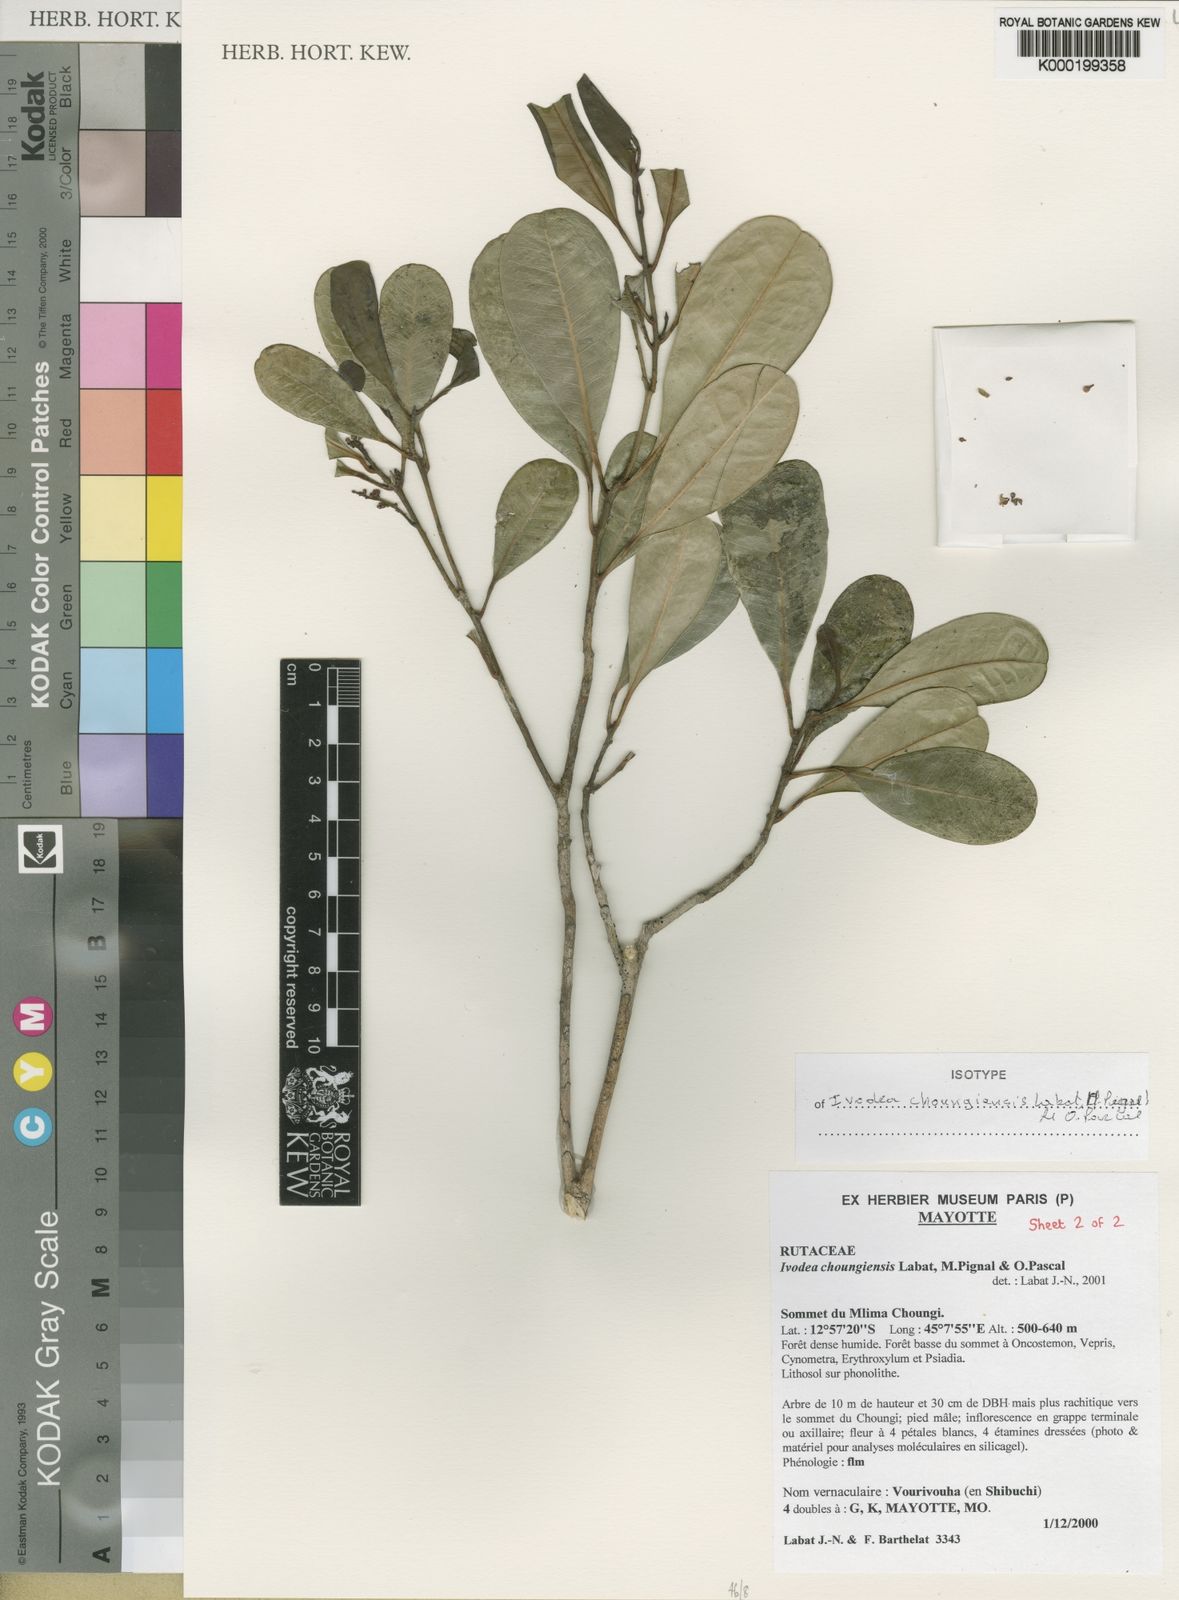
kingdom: Plantae
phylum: Tracheophyta
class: Magnoliopsida
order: Sapindales
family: Rutaceae
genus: Ivodea
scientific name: Ivodea choungiensis
